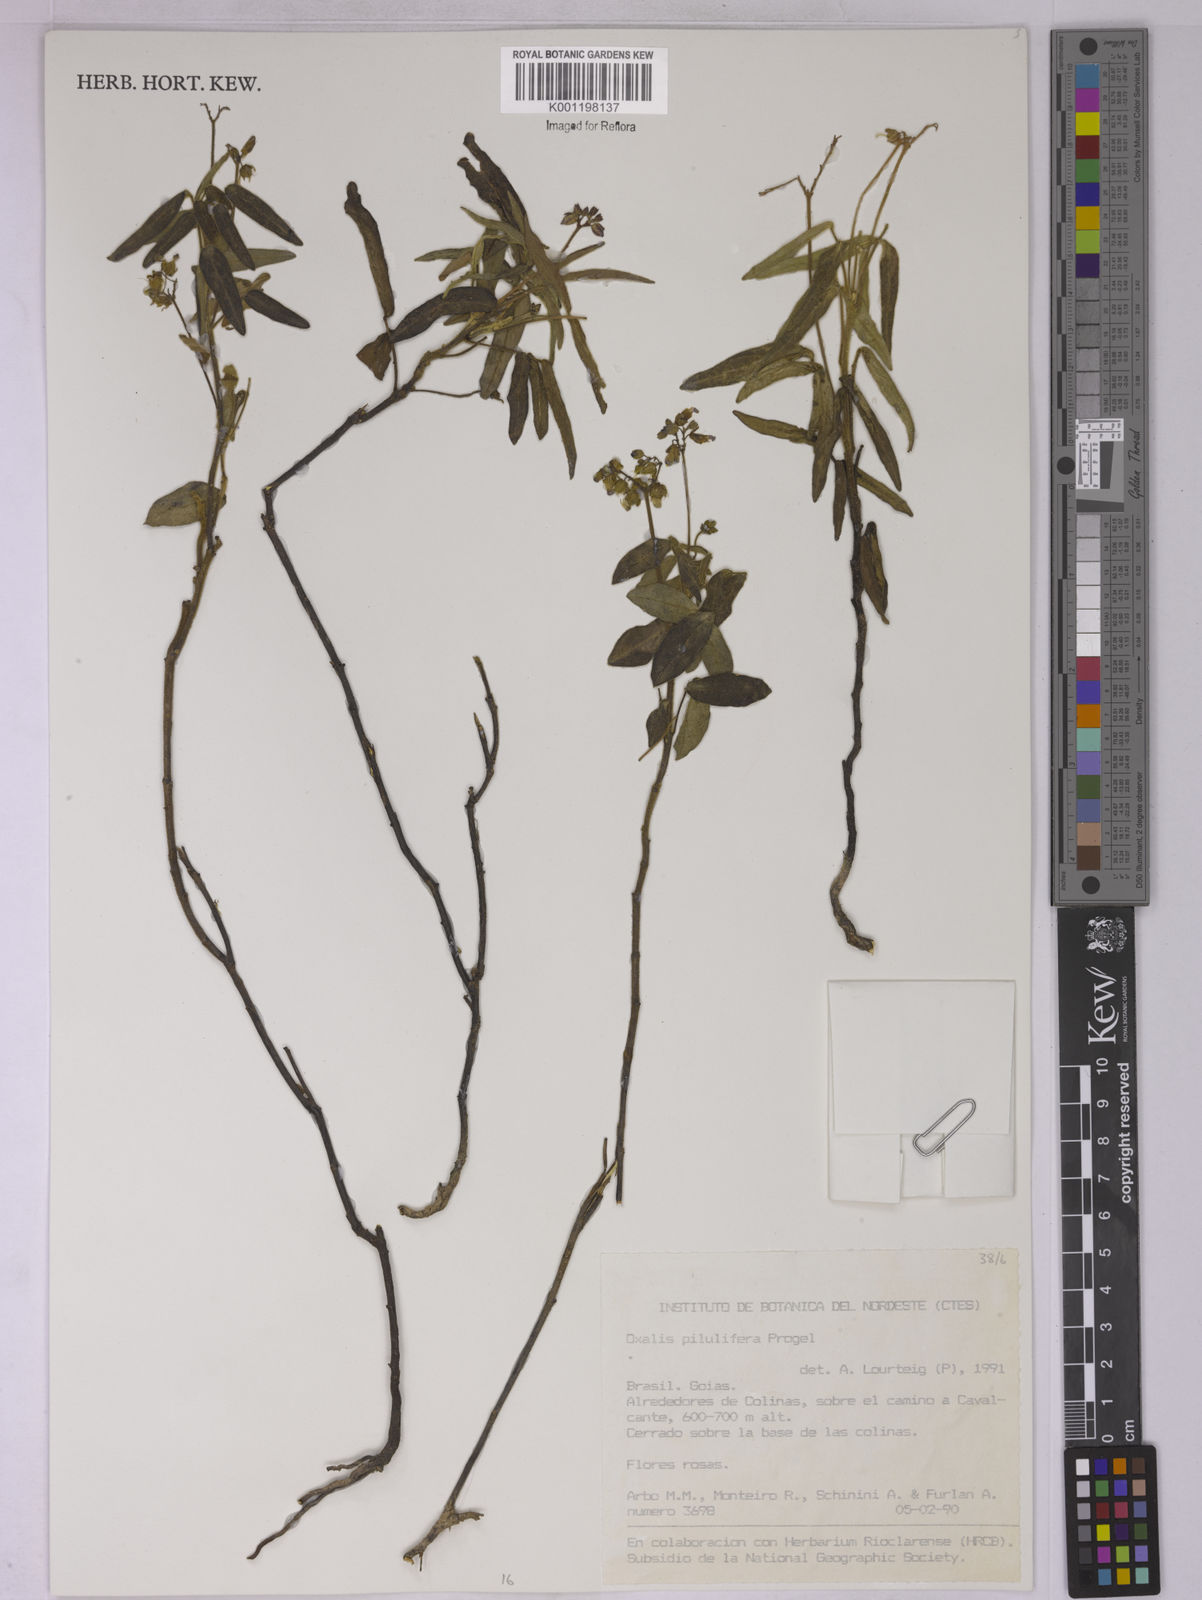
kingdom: Plantae
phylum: Tracheophyta
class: Magnoliopsida
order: Oxalidales
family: Oxalidaceae
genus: Oxalis
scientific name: Oxalis pilulifera
